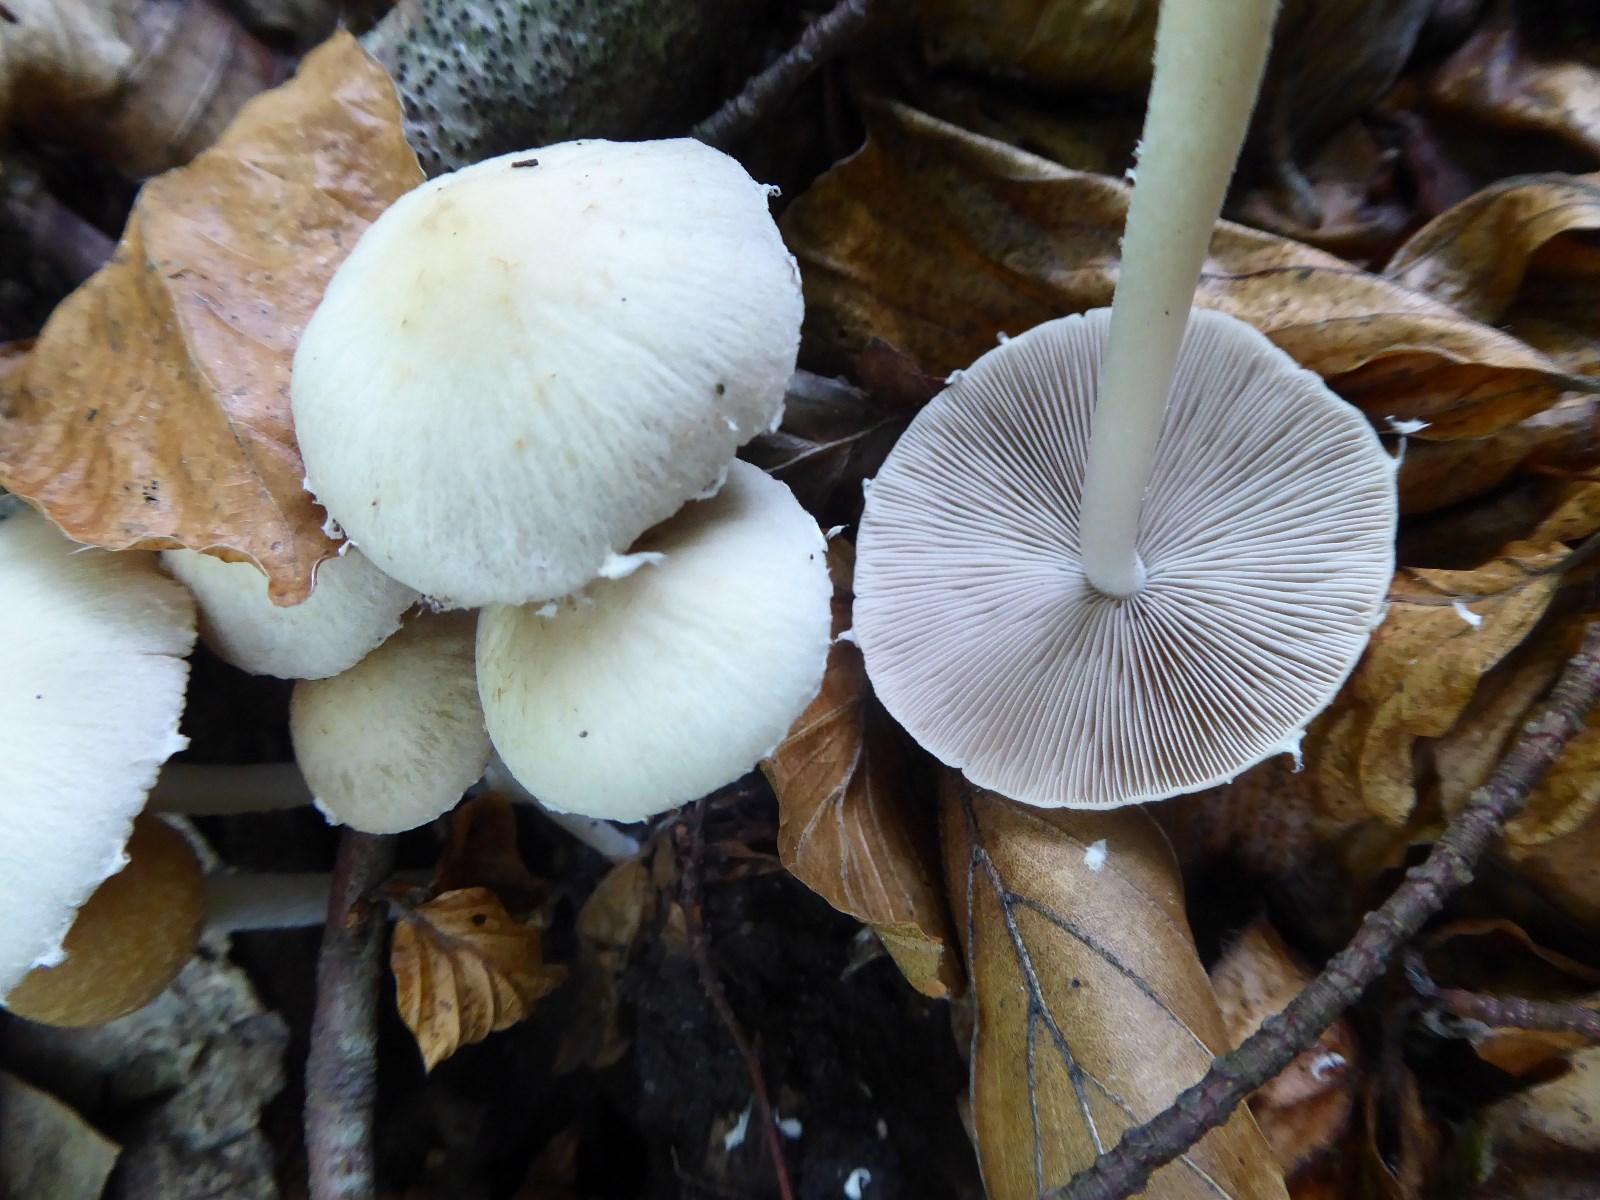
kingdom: Fungi
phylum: Basidiomycota
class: Agaricomycetes
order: Agaricales
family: Psathyrellaceae
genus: Candolleomyces
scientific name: Candolleomyces candolleanus
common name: Candolles mørkhat
